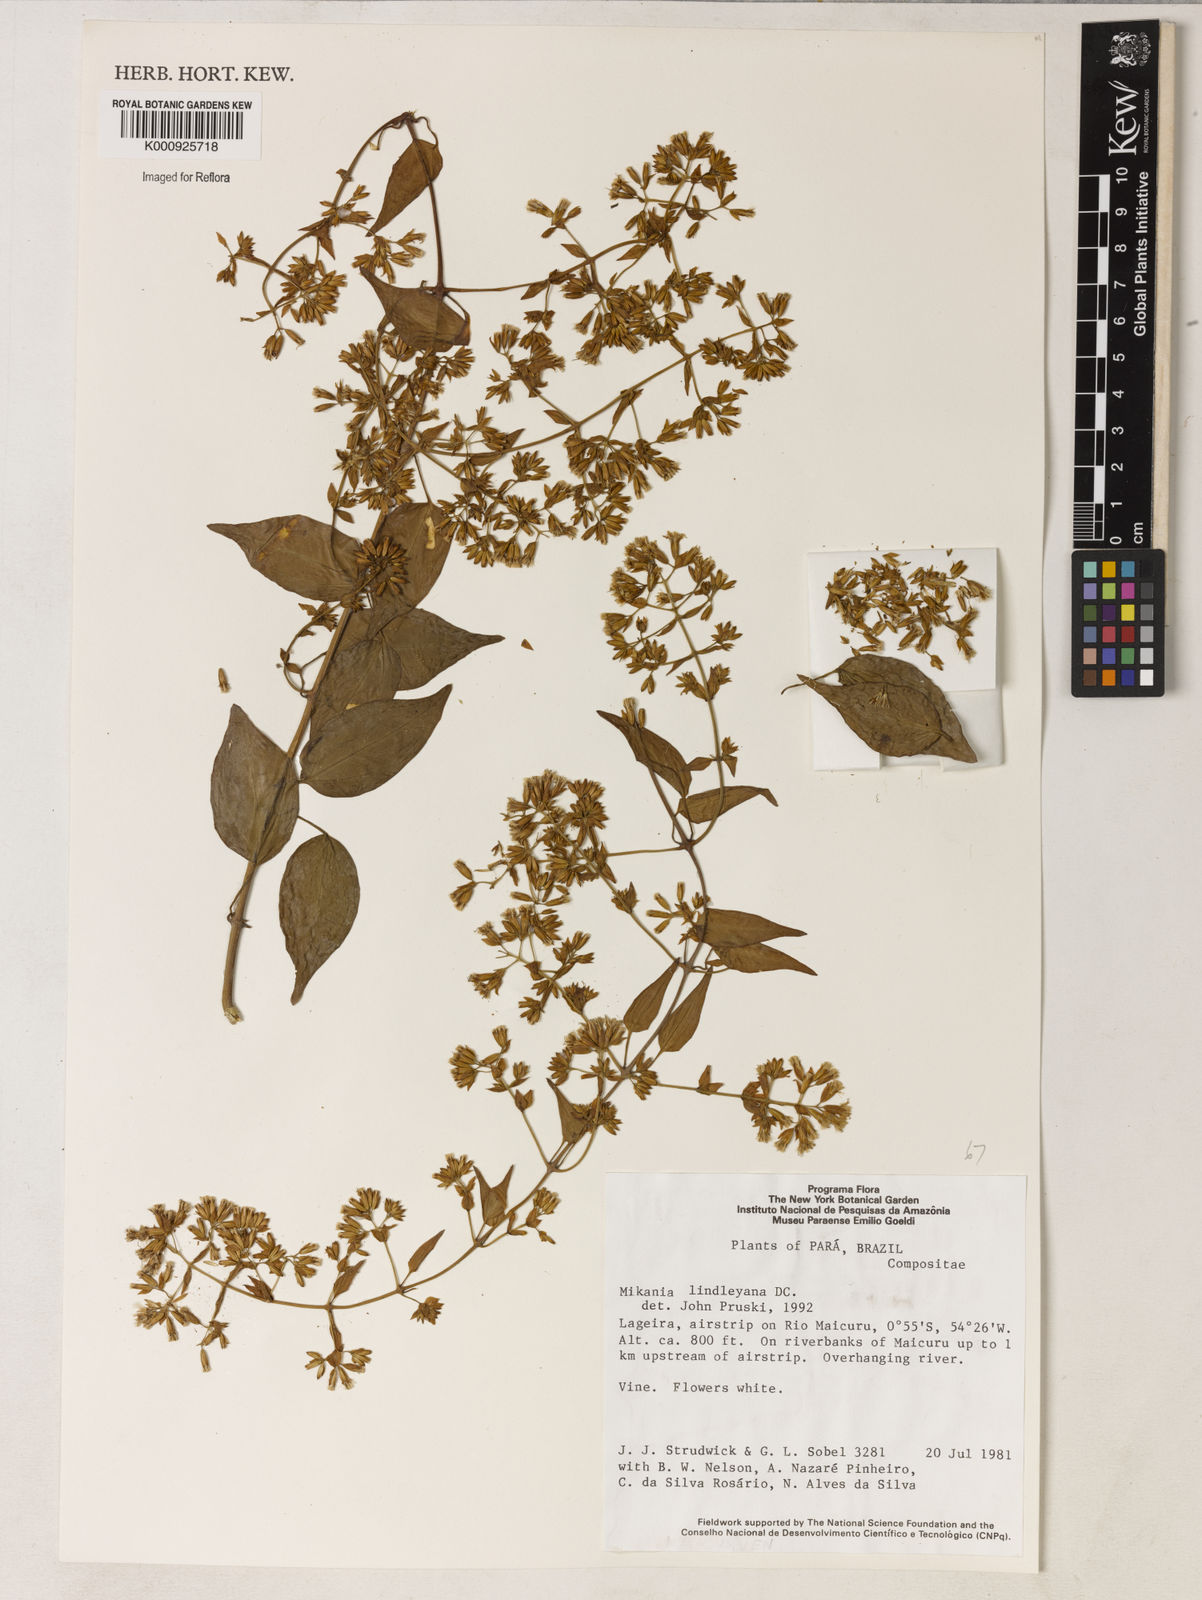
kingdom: Plantae
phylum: Tracheophyta
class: Magnoliopsida
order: Asterales
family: Asteraceae
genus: Mikania
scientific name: Mikania lindleyana
